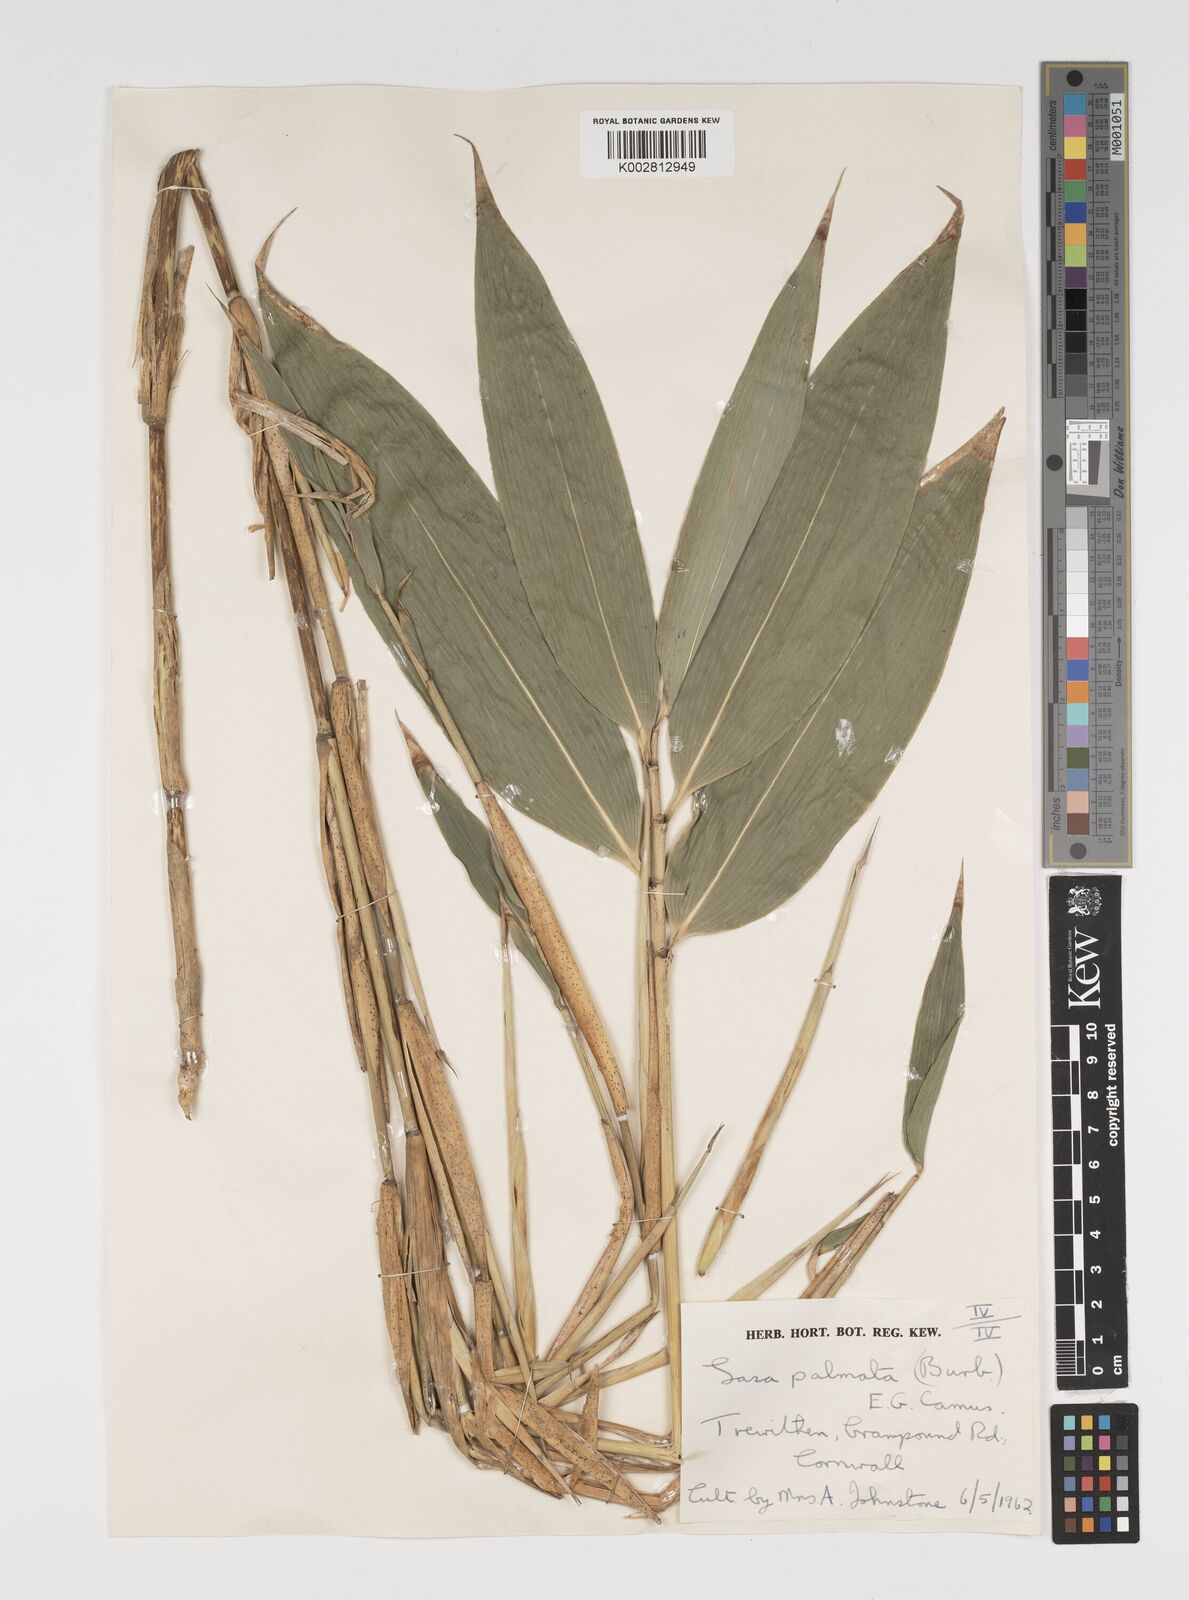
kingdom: Plantae
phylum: Tracheophyta
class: Liliopsida
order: Poales
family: Poaceae
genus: Sasa
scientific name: Sasa palmata
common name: Broad-leaved bamboo
